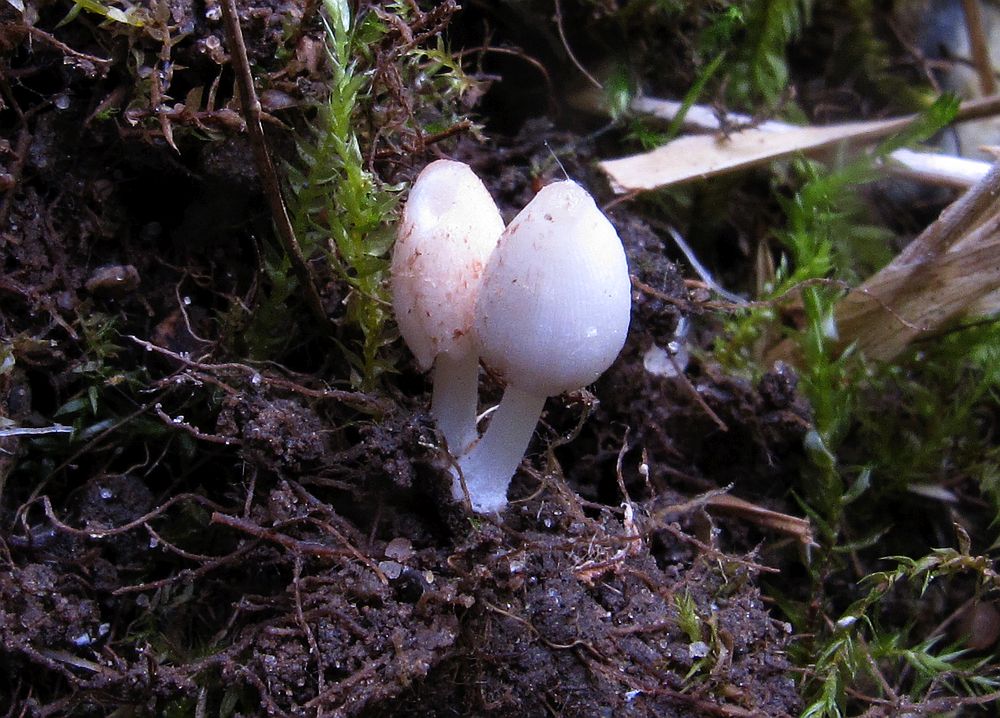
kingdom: Fungi
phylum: Basidiomycota
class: Agaricomycetes
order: Agaricales
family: Psathyrellaceae
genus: Coprinopsis
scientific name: Coprinopsis epichloea
